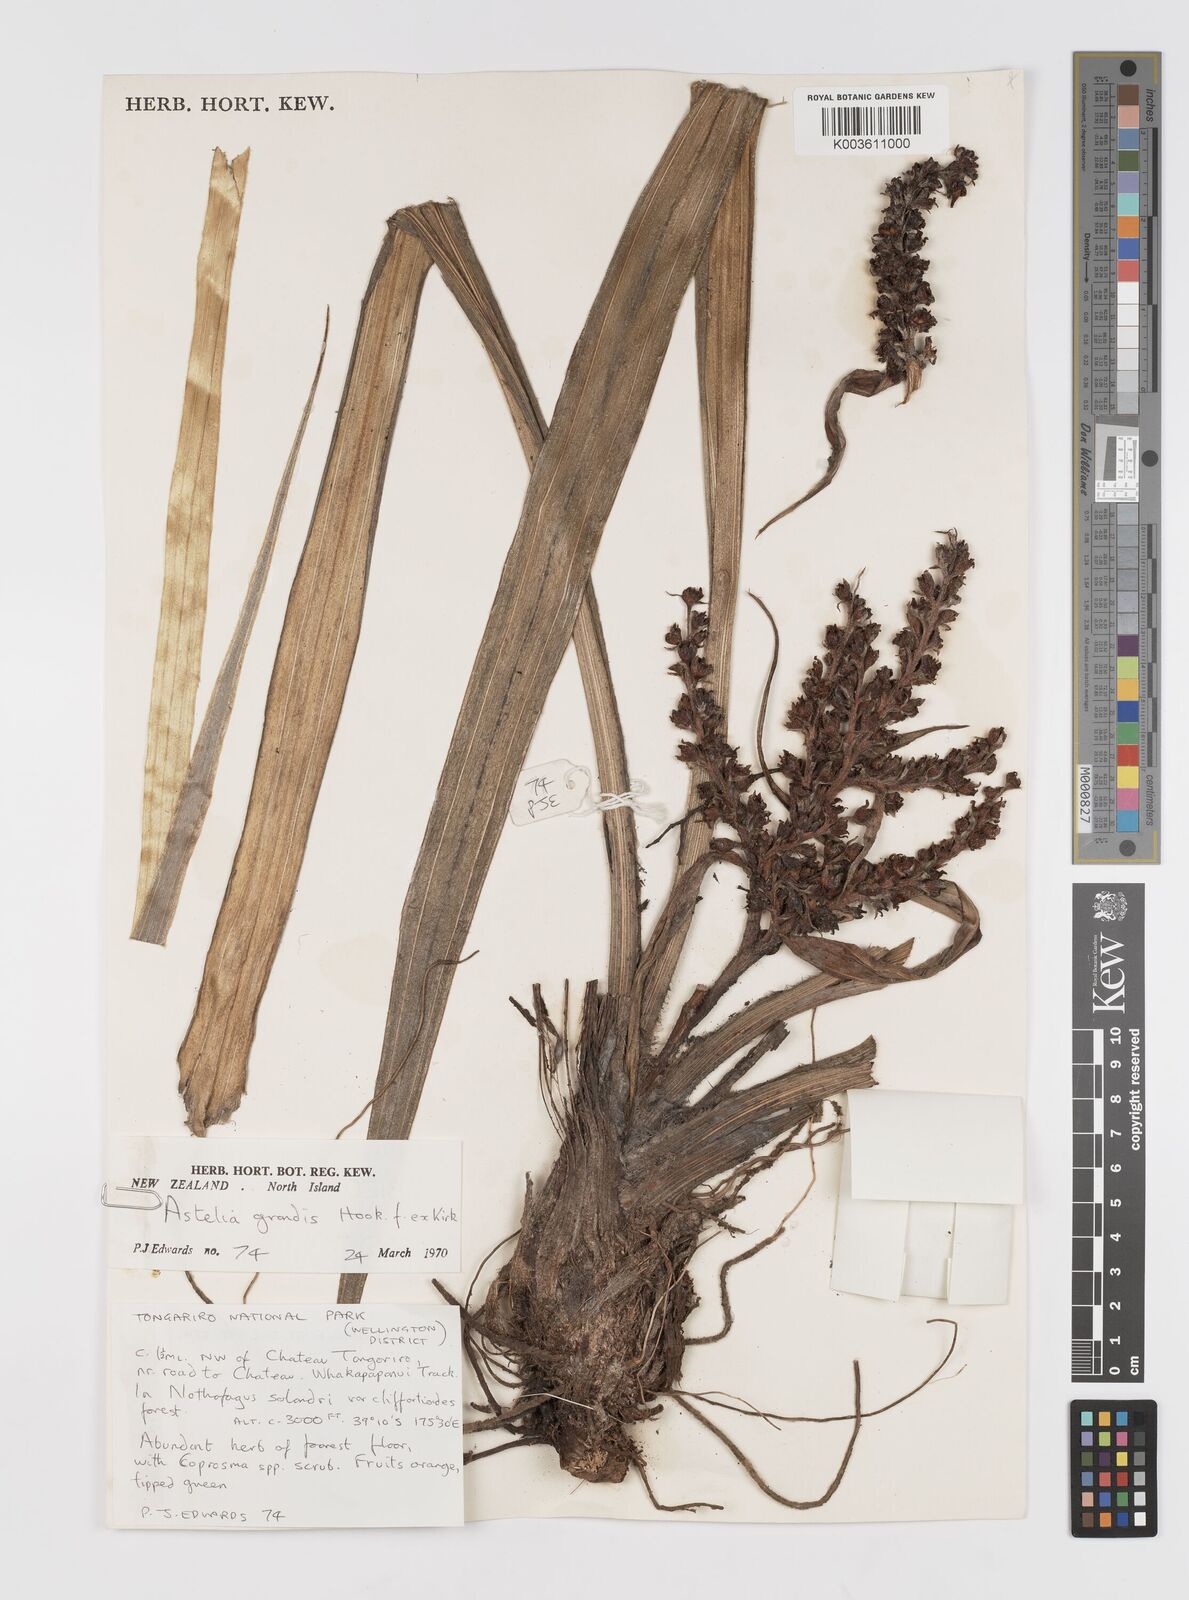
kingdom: Plantae
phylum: Tracheophyta
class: Liliopsida
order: Asparagales
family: Asteliaceae
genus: Astelia
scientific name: Astelia grandis
